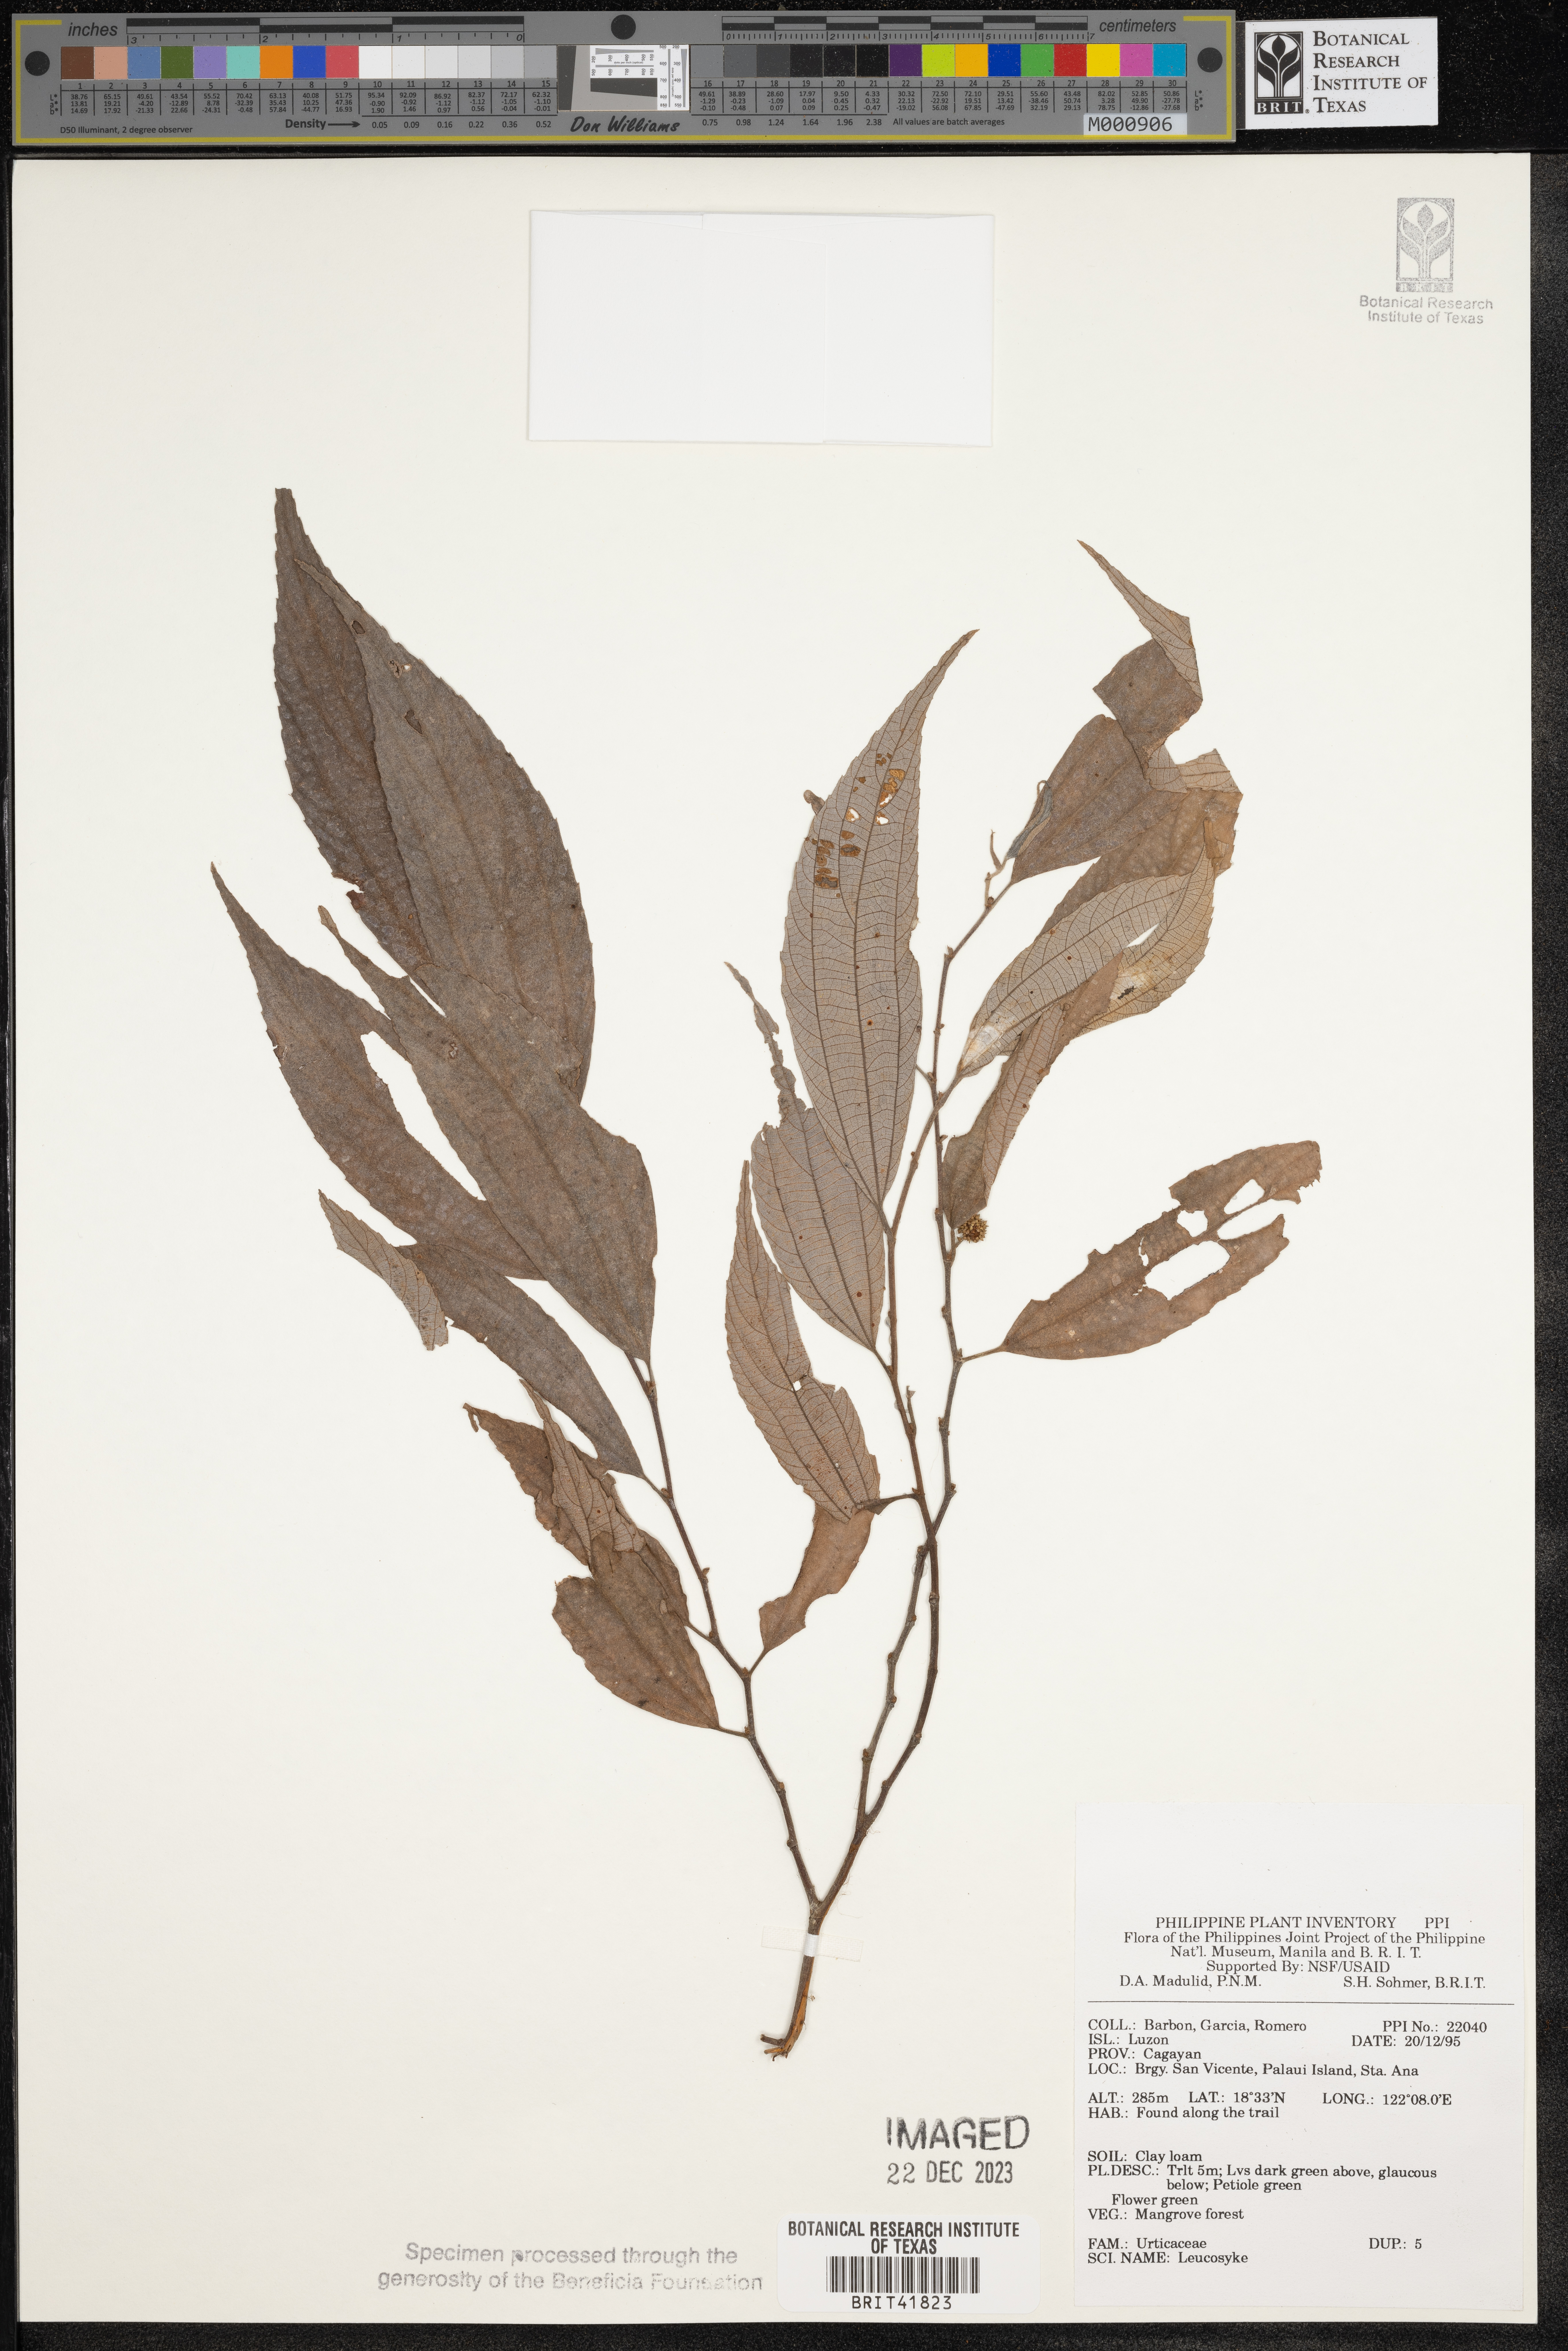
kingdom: Plantae
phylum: Tracheophyta
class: Magnoliopsida
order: Rosales
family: Urticaceae
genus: Leucosyke
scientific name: Leucosyke
